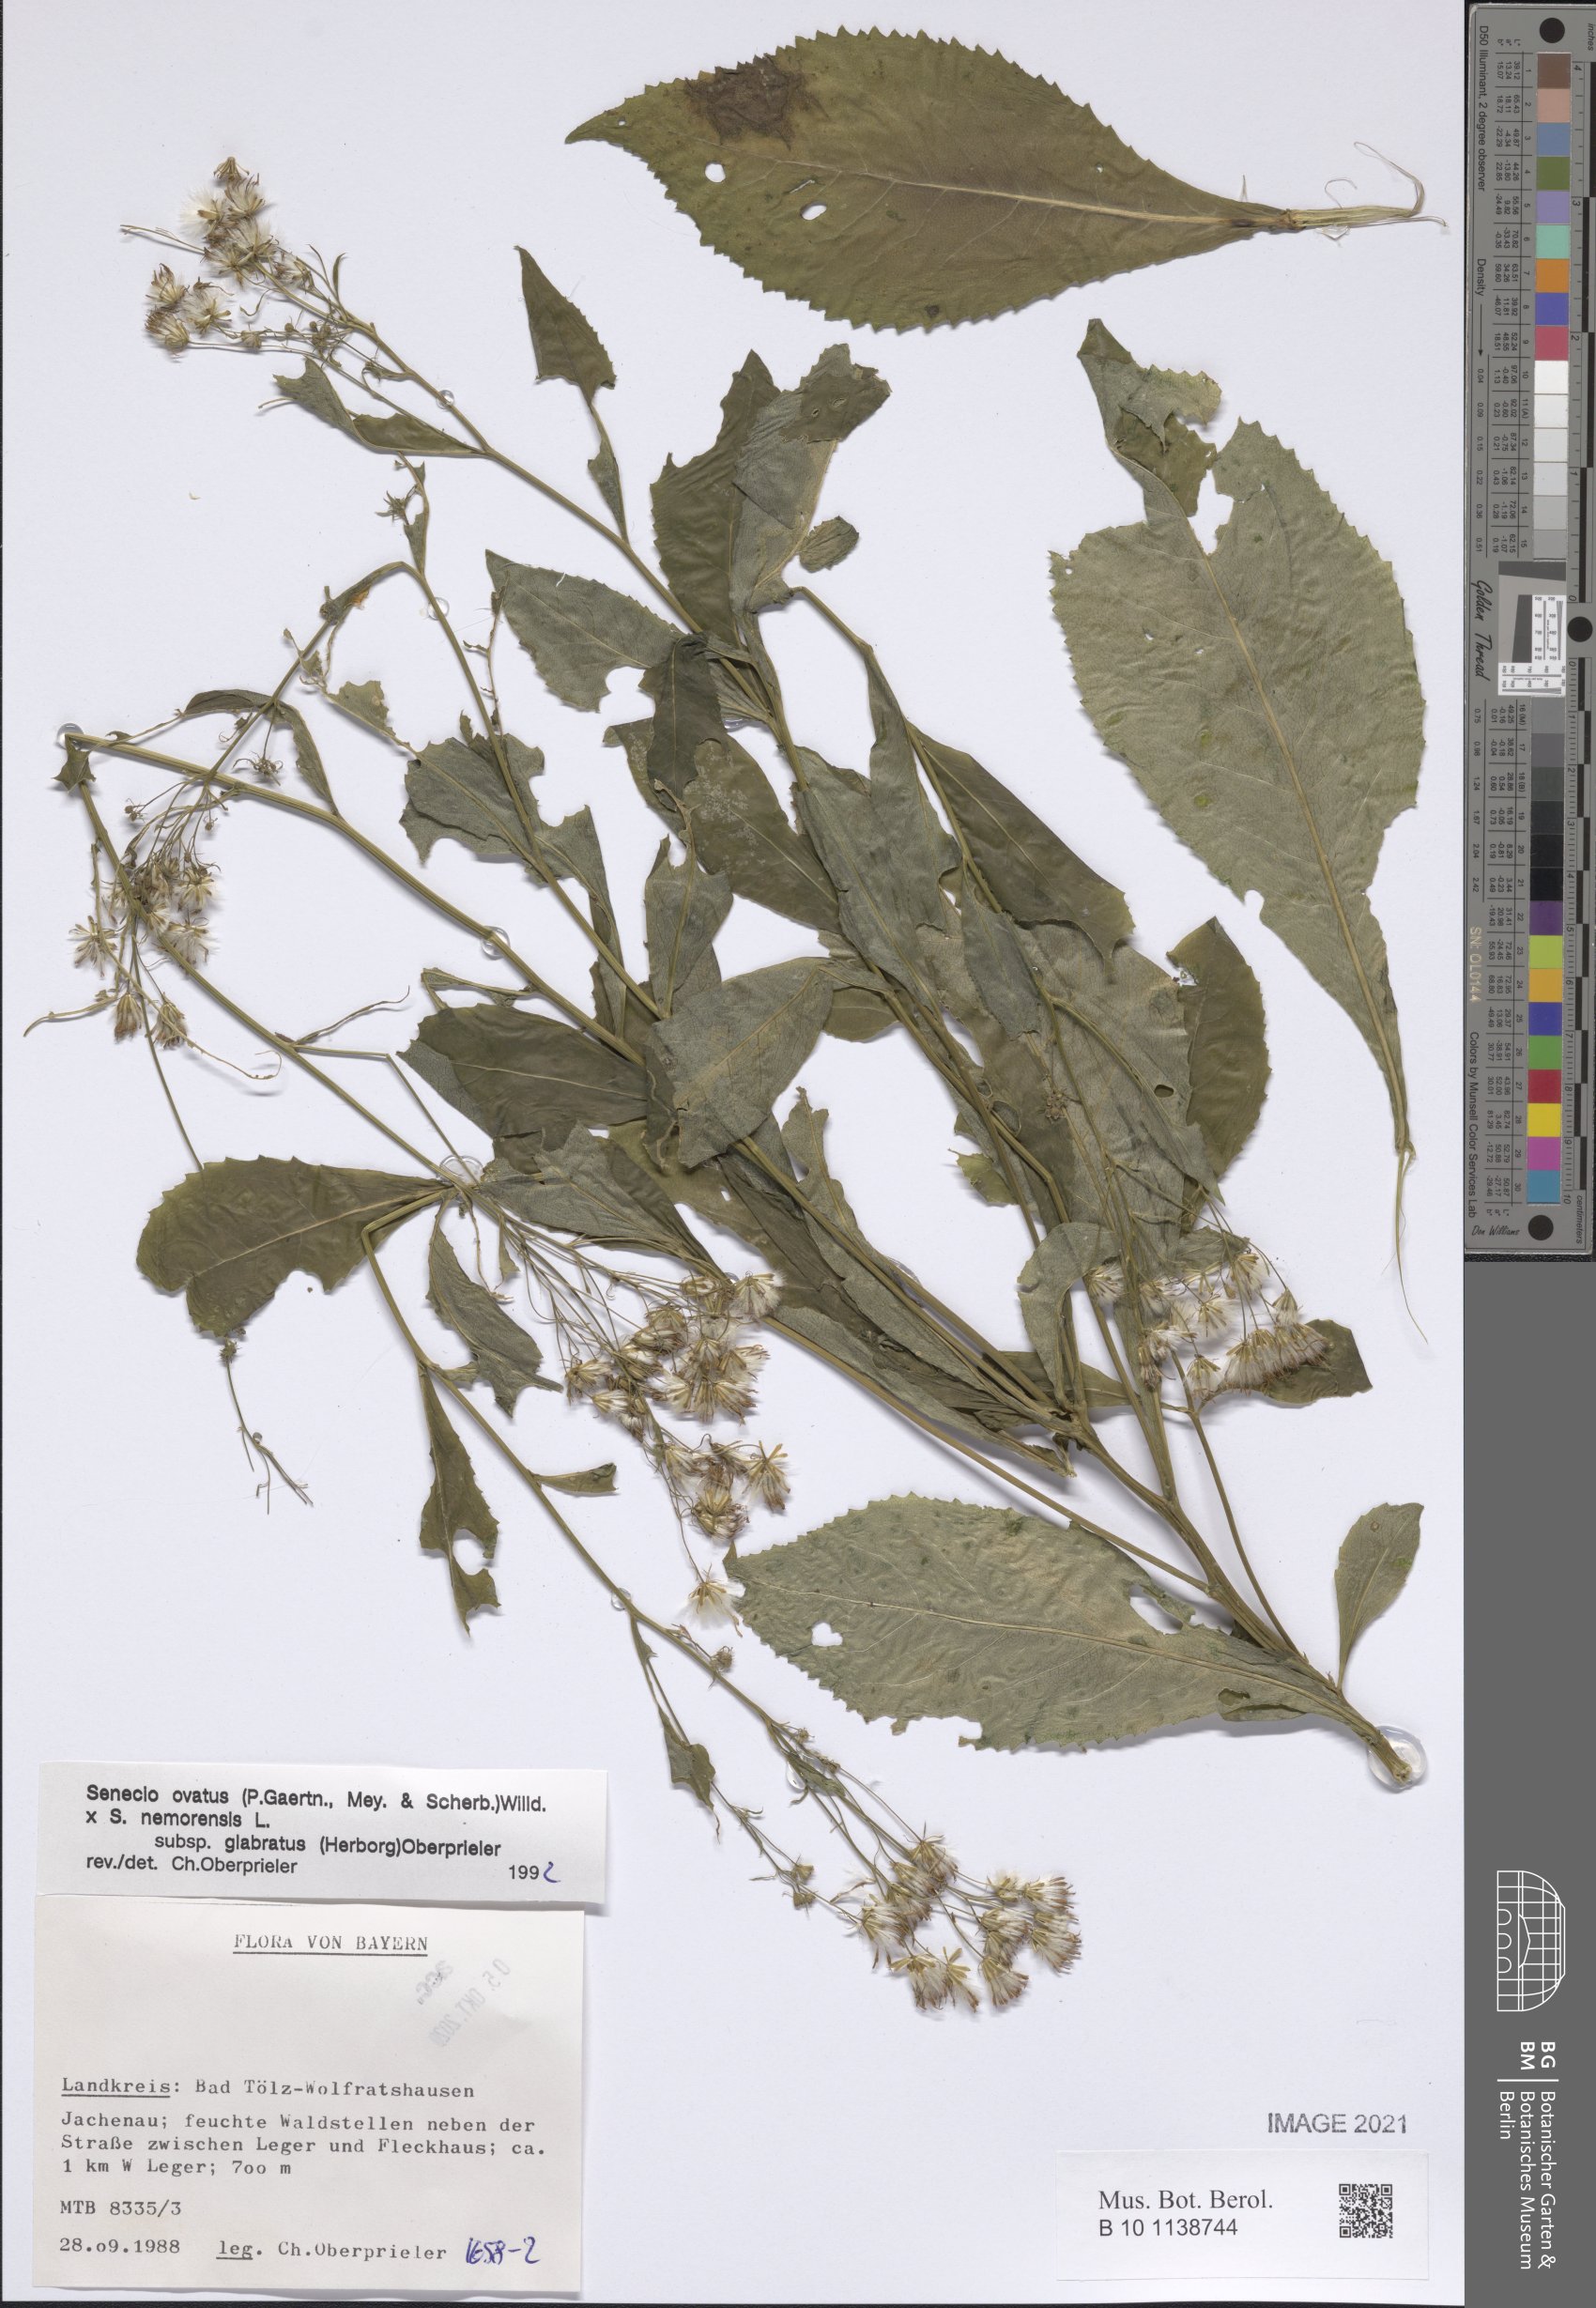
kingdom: Plantae
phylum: Tracheophyta
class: Magnoliopsida
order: Asterales
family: Asteraceae
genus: Senecio
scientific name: Senecio ovatus
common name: Wood ragwort
